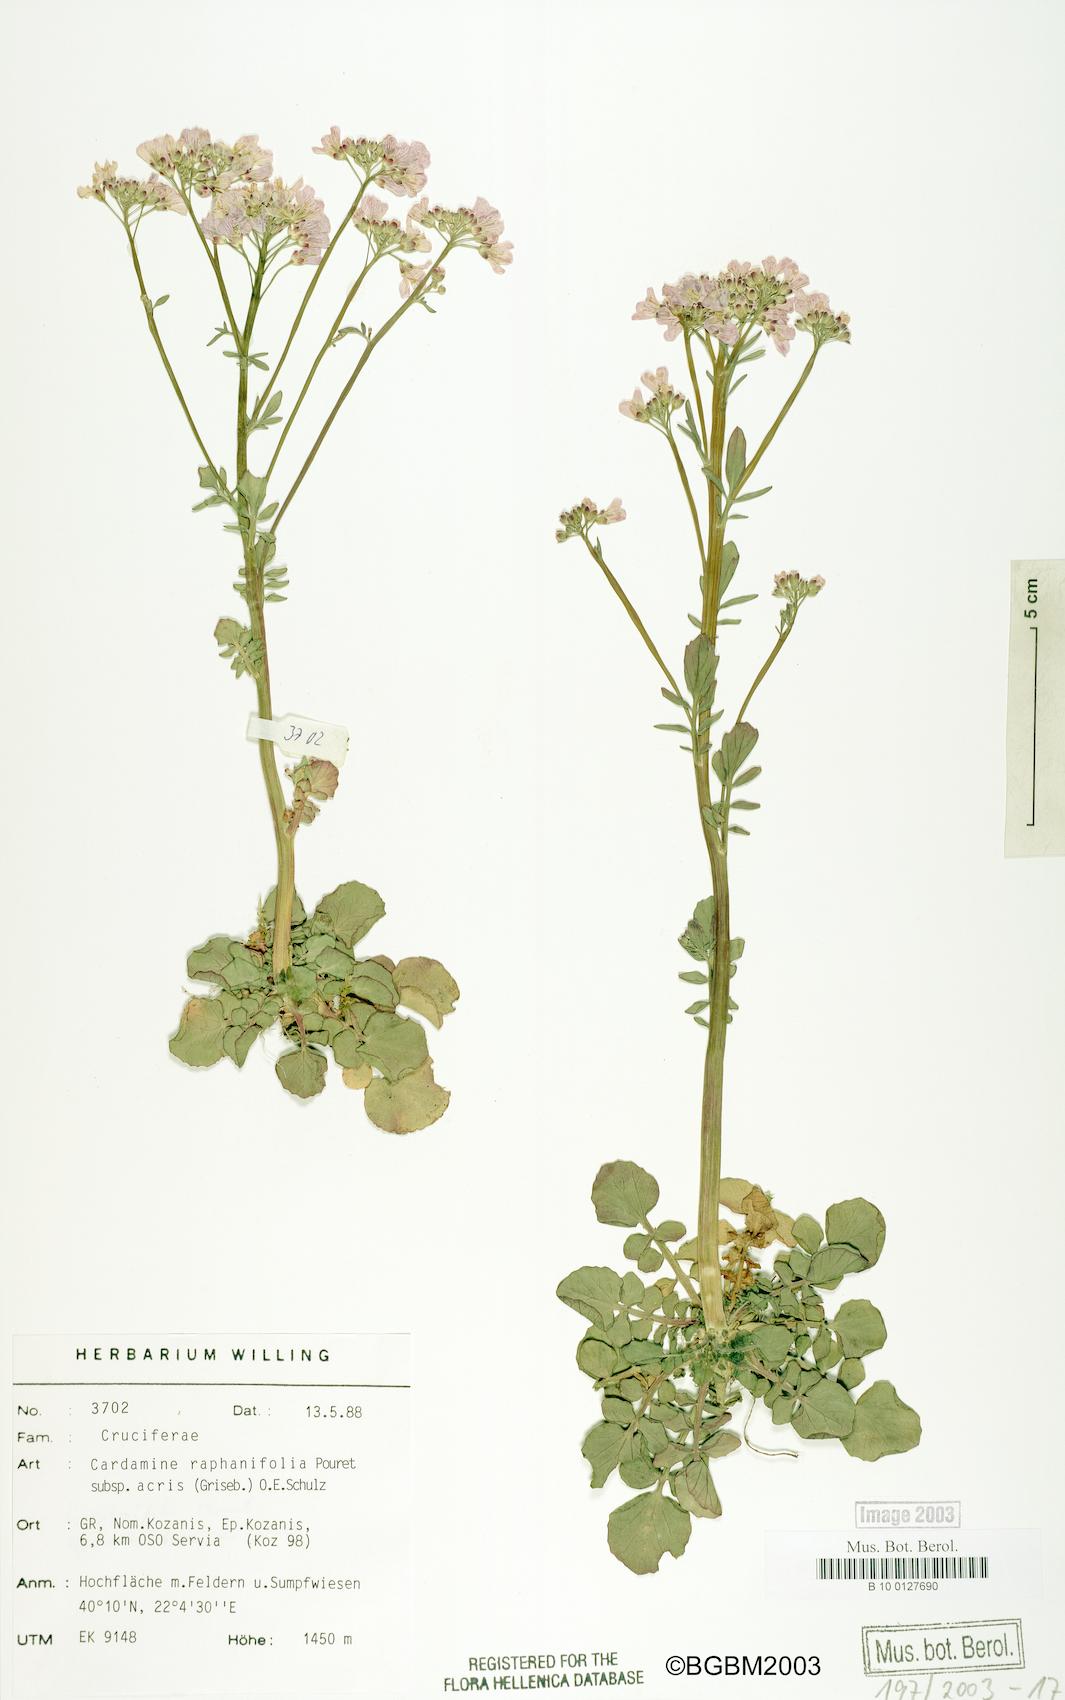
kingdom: Plantae
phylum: Tracheophyta
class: Magnoliopsida
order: Brassicales
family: Brassicaceae
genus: Cardamine
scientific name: Cardamine raphanifolia
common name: Greater cuckooflower
